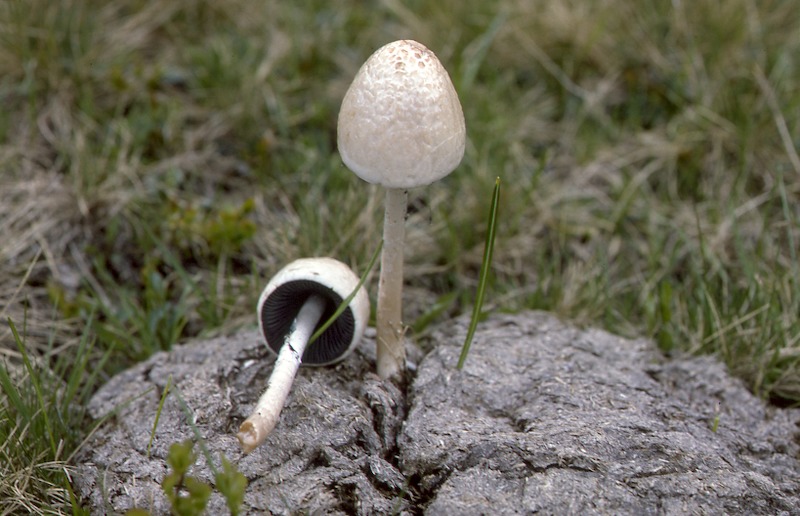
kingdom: Fungi
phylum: Basidiomycota
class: Agaricomycetes
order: Agaricales
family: Bolbitiaceae
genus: Panaeolus
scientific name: Panaeolus semiovatus
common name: Shiny mottlegill
